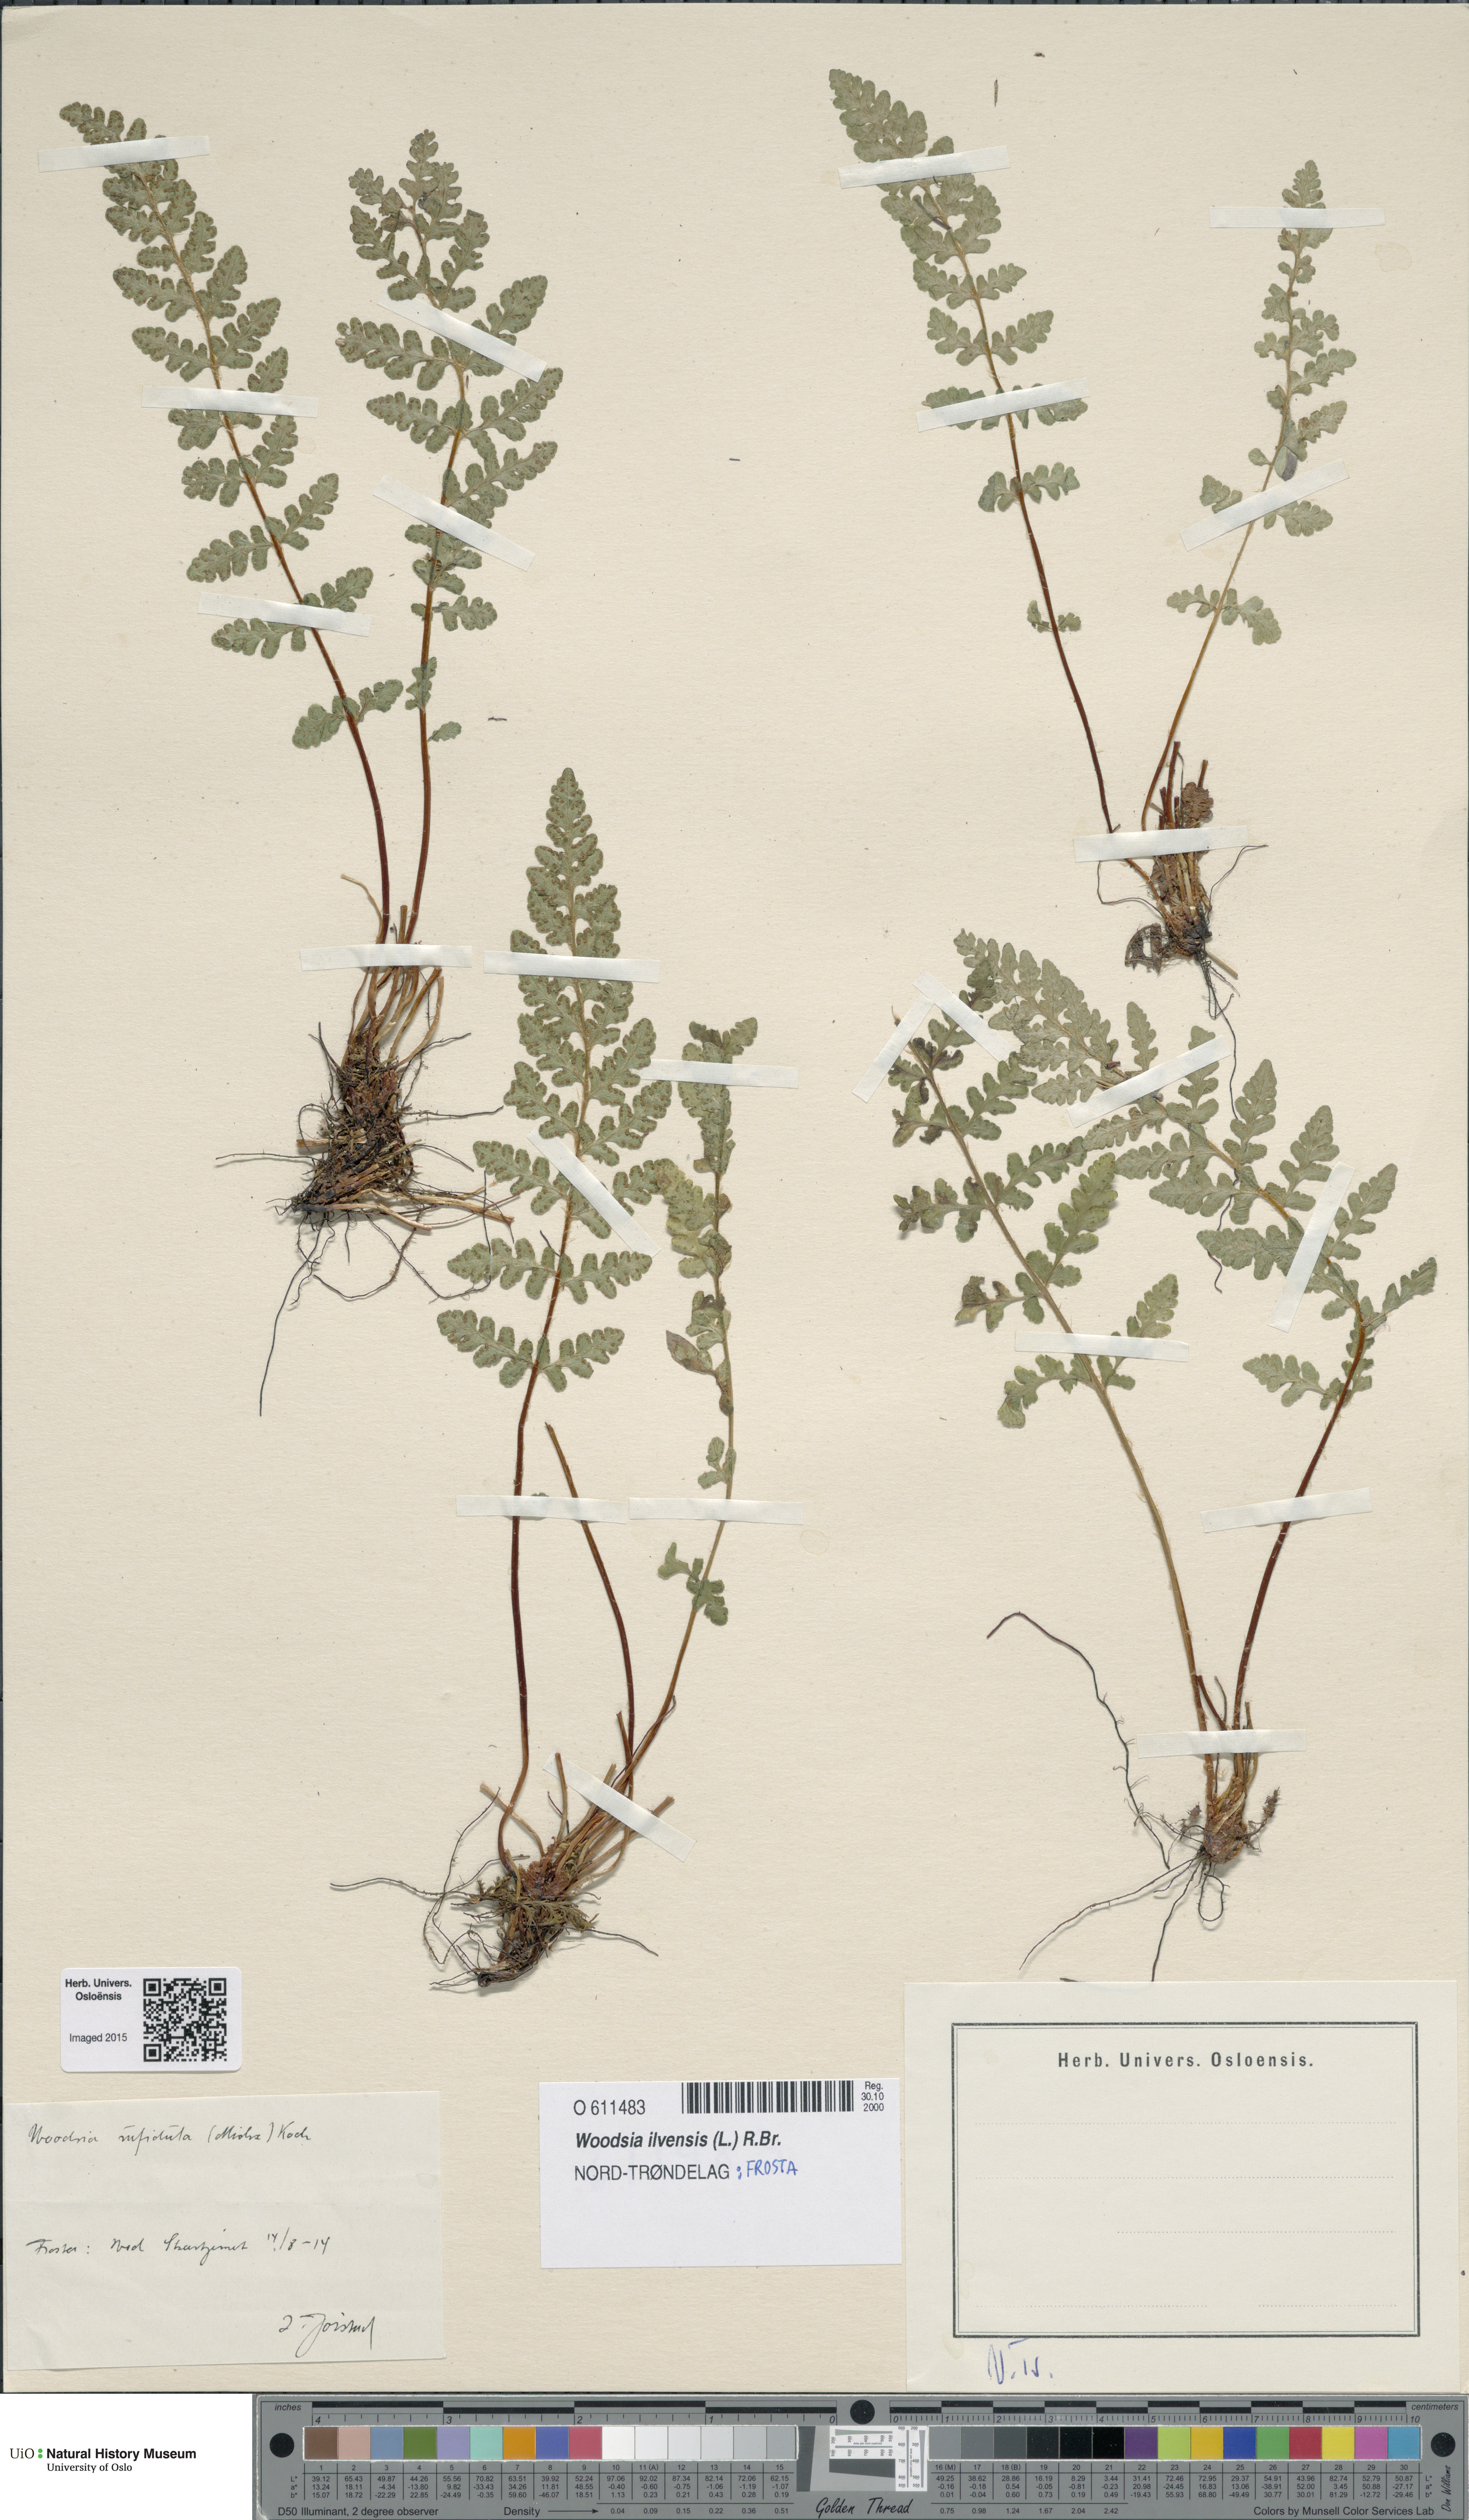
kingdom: Plantae
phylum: Tracheophyta
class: Polypodiopsida
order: Polypodiales
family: Woodsiaceae
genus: Woodsia
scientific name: Woodsia ilvensis
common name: Fragrant woodsia
